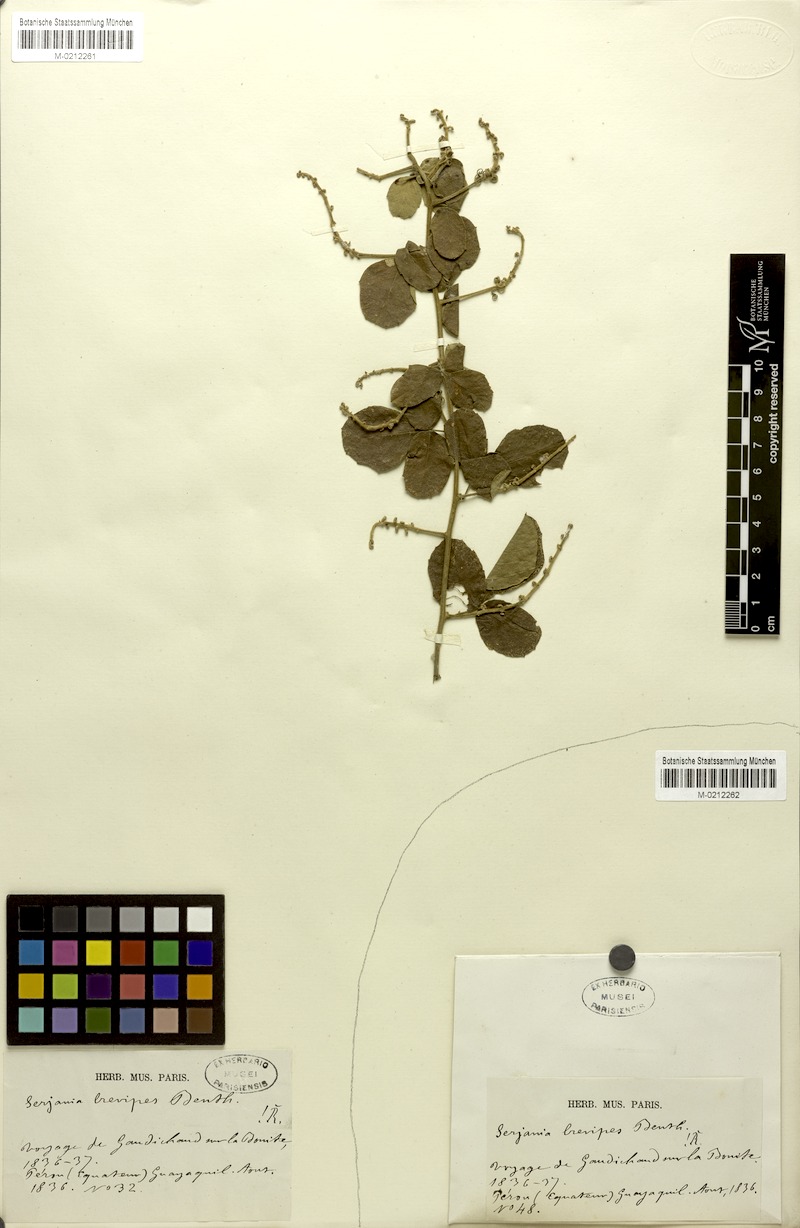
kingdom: Plantae
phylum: Tracheophyta
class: Magnoliopsida
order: Sapindales
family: Sapindaceae
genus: Serjania
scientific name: Serjania brevipes
